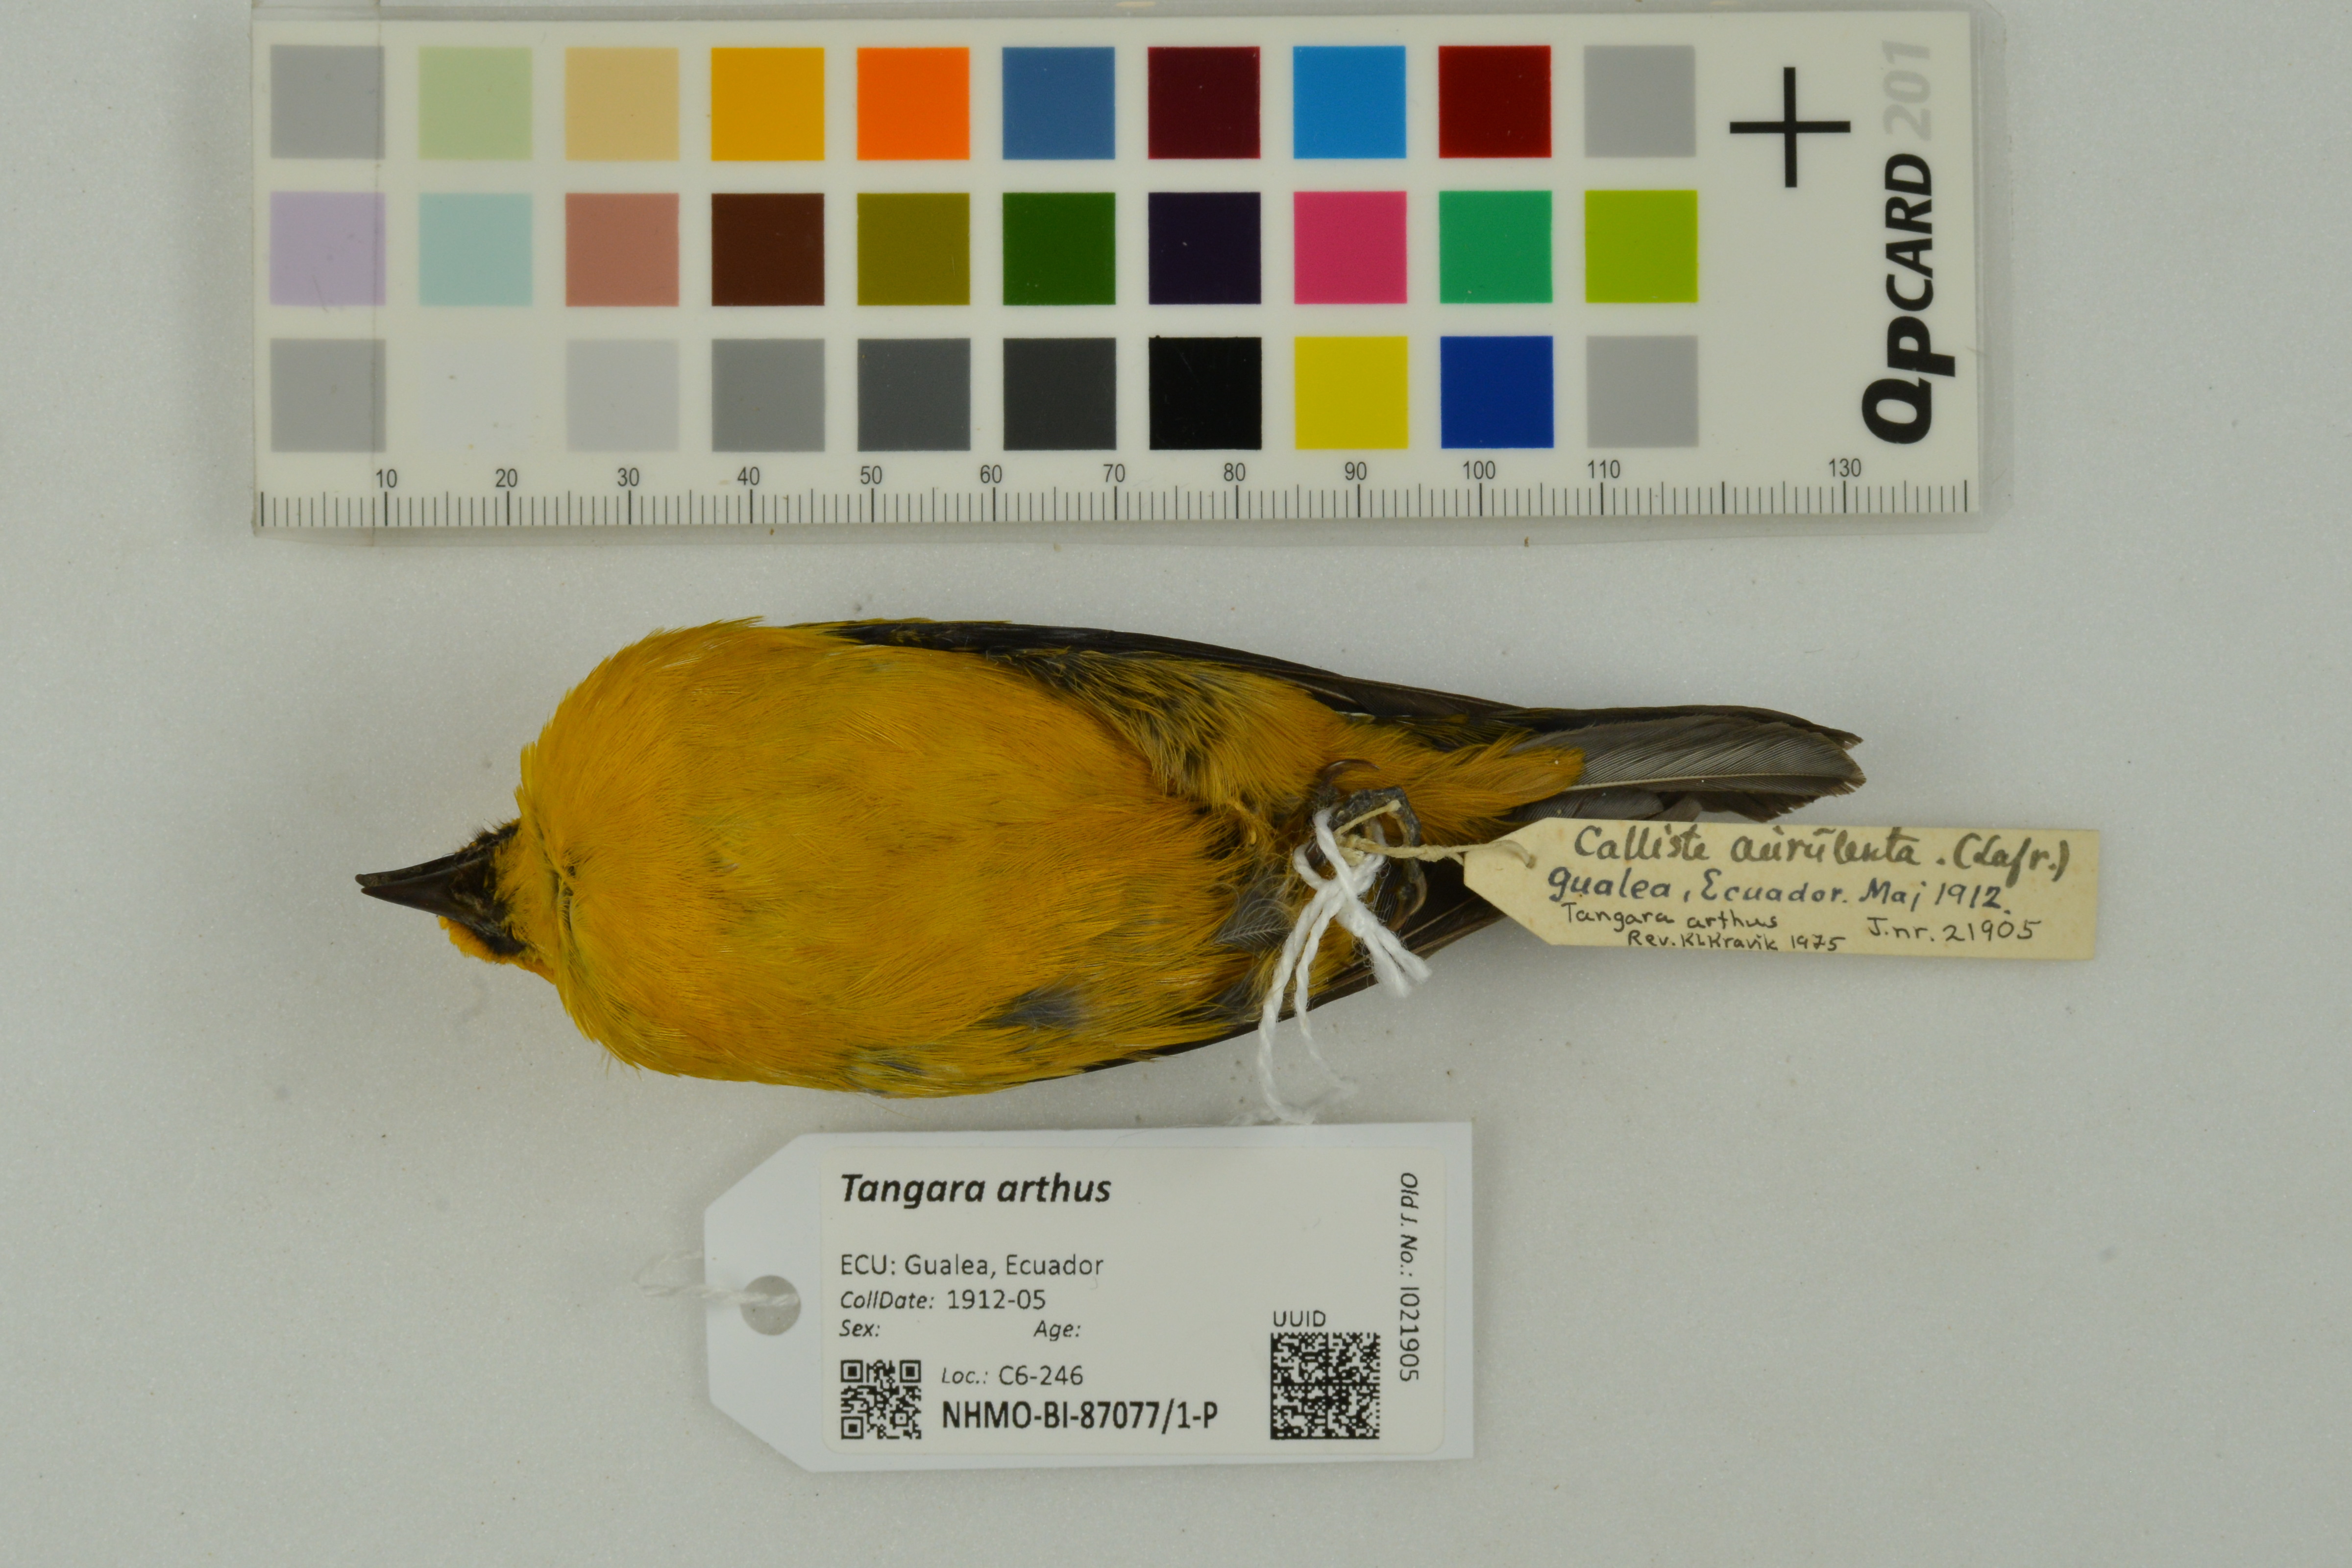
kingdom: Animalia
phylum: Chordata
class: Aves
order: Passeriformes
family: Thraupidae
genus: Tangara
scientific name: Tangara arthus
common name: Golden tanager
